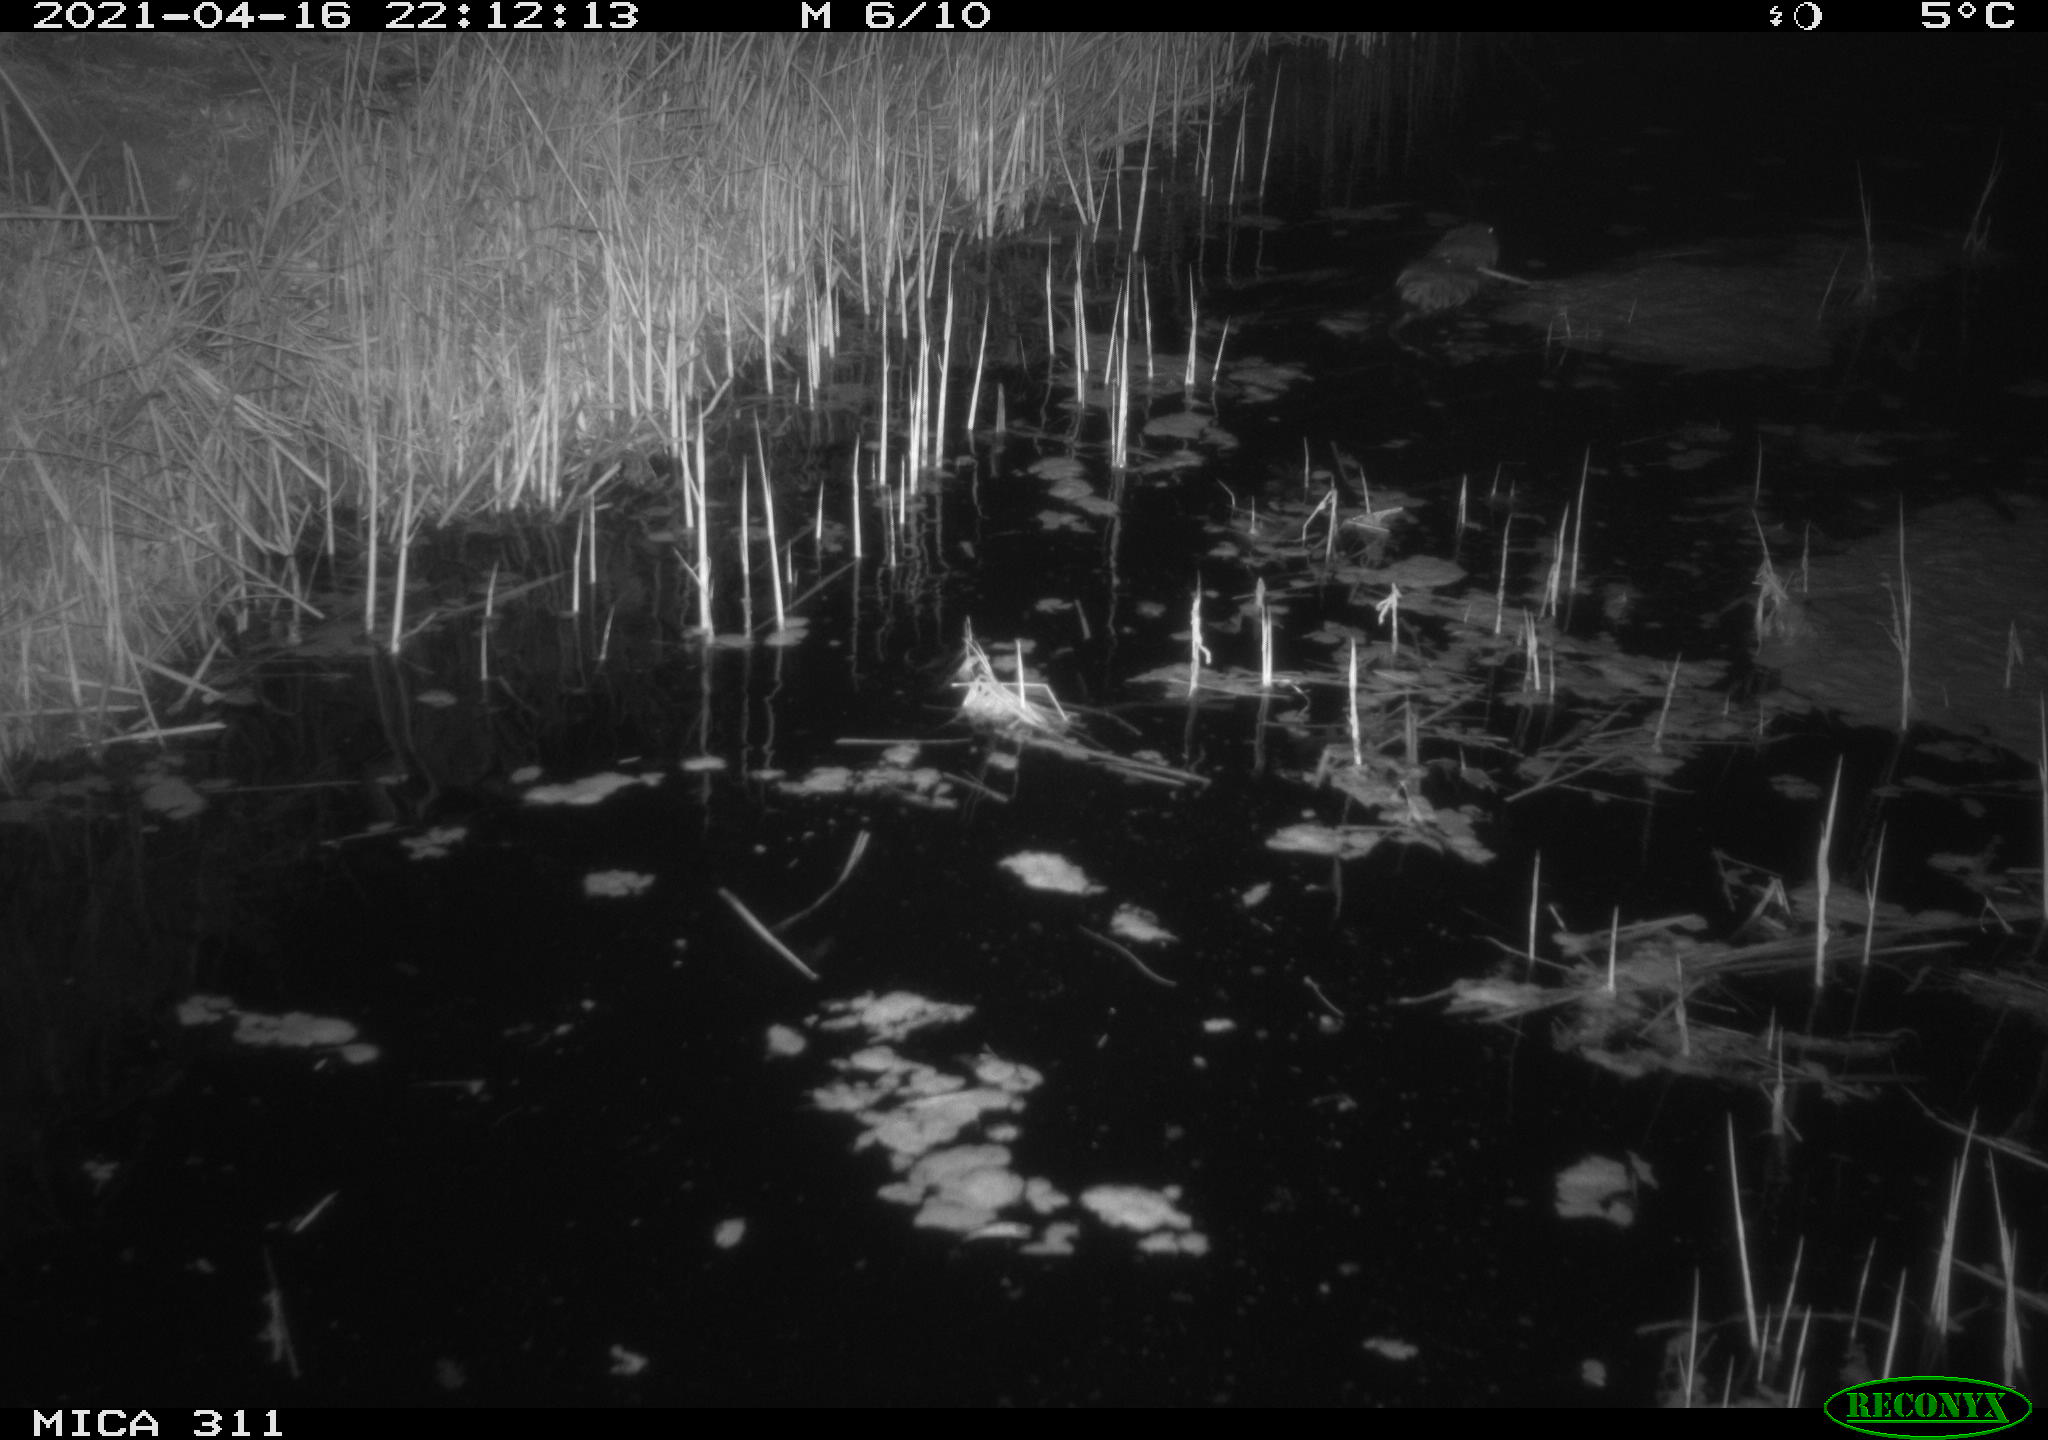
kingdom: Animalia
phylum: Chordata
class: Mammalia
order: Rodentia
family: Cricetidae
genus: Ondatra
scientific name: Ondatra zibethicus
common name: Muskrat
